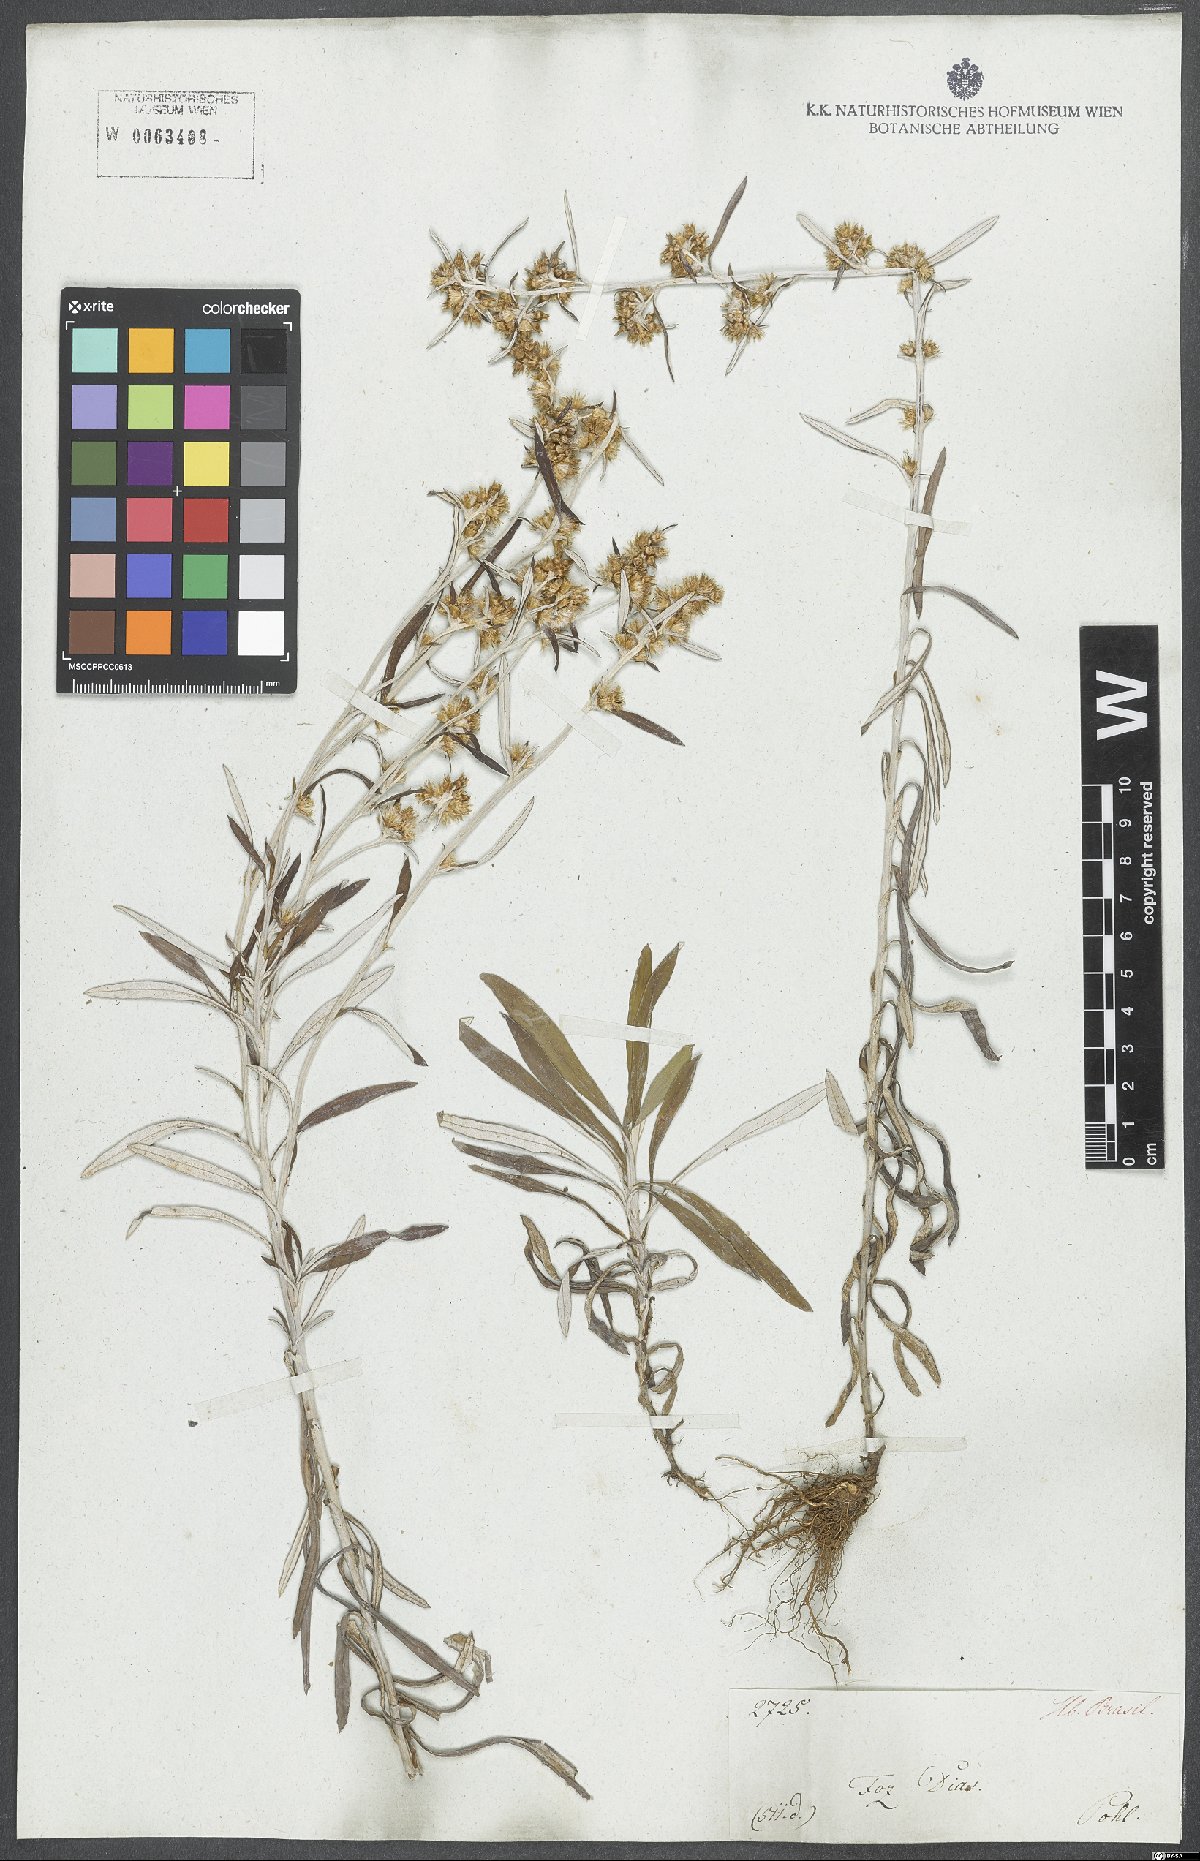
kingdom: Plantae
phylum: Tracheophyta
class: Magnoliopsida
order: Asterales
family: Asteraceae
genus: Gamochaeta
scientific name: Gamochaeta simplicicaulis
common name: Simple-stem everlasting
